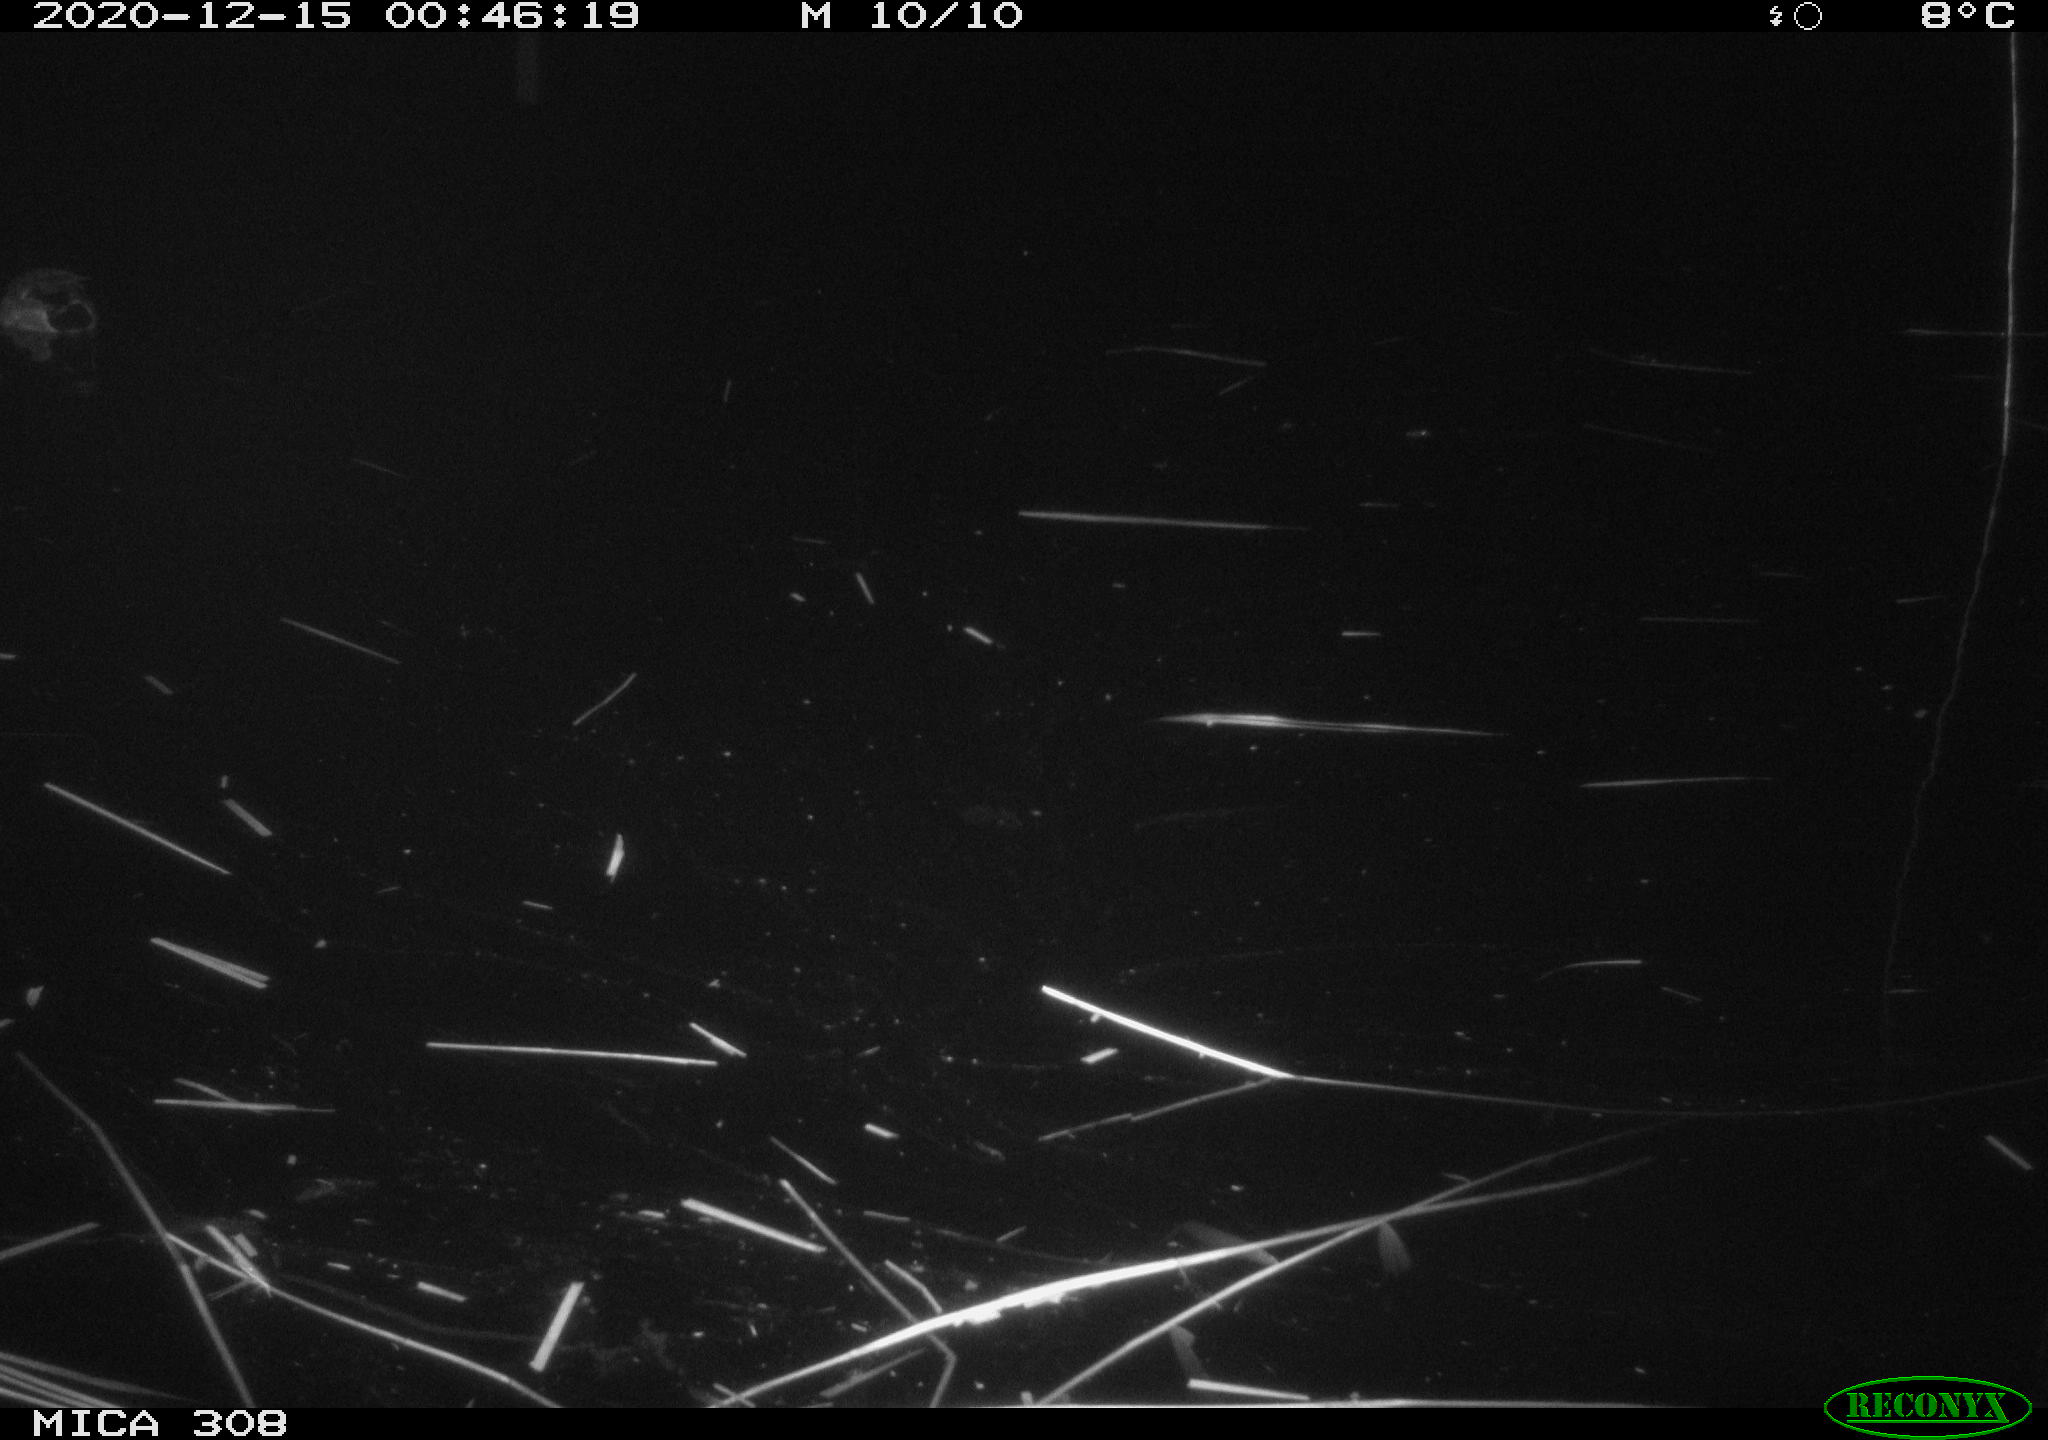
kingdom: Animalia
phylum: Chordata
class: Aves
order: Anseriformes
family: Anatidae
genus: Anas
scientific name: Anas platyrhynchos
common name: Mallard
